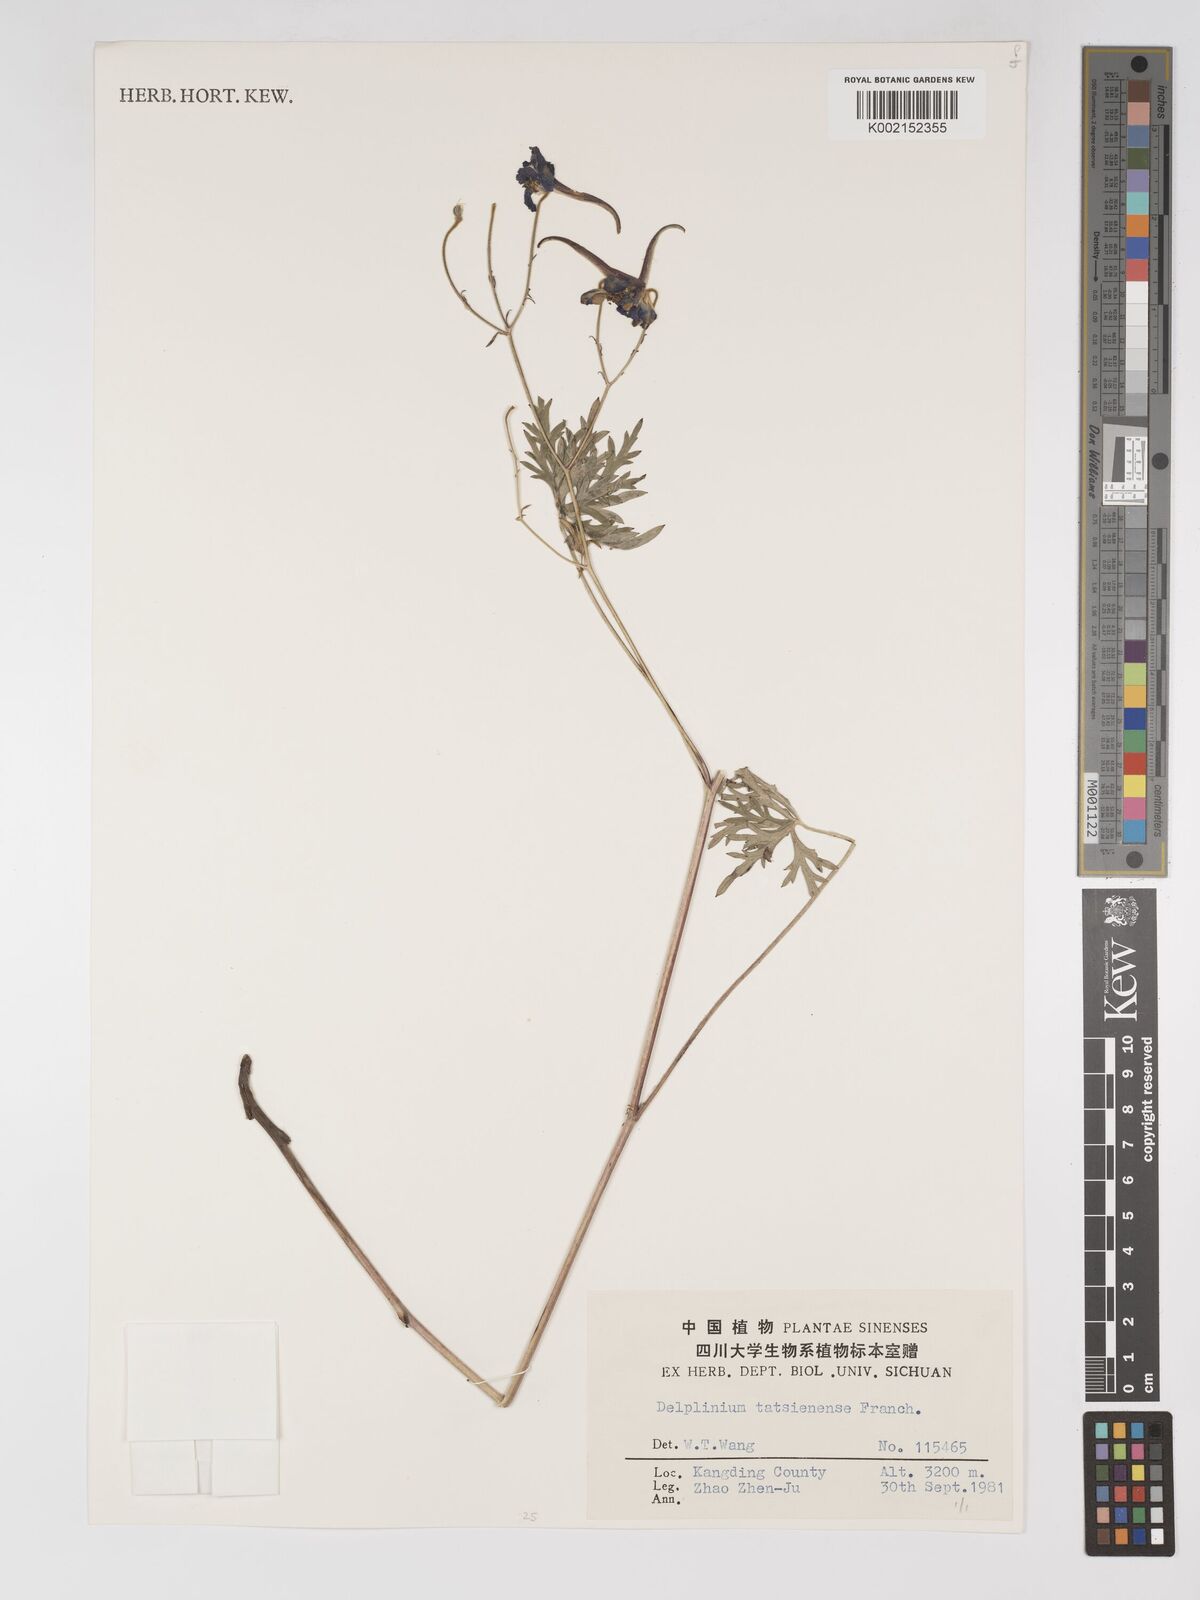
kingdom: Plantae
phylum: Tracheophyta
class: Magnoliopsida
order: Ranunculales
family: Ranunculaceae
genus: Delphinium
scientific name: Delphinium tatsienense
